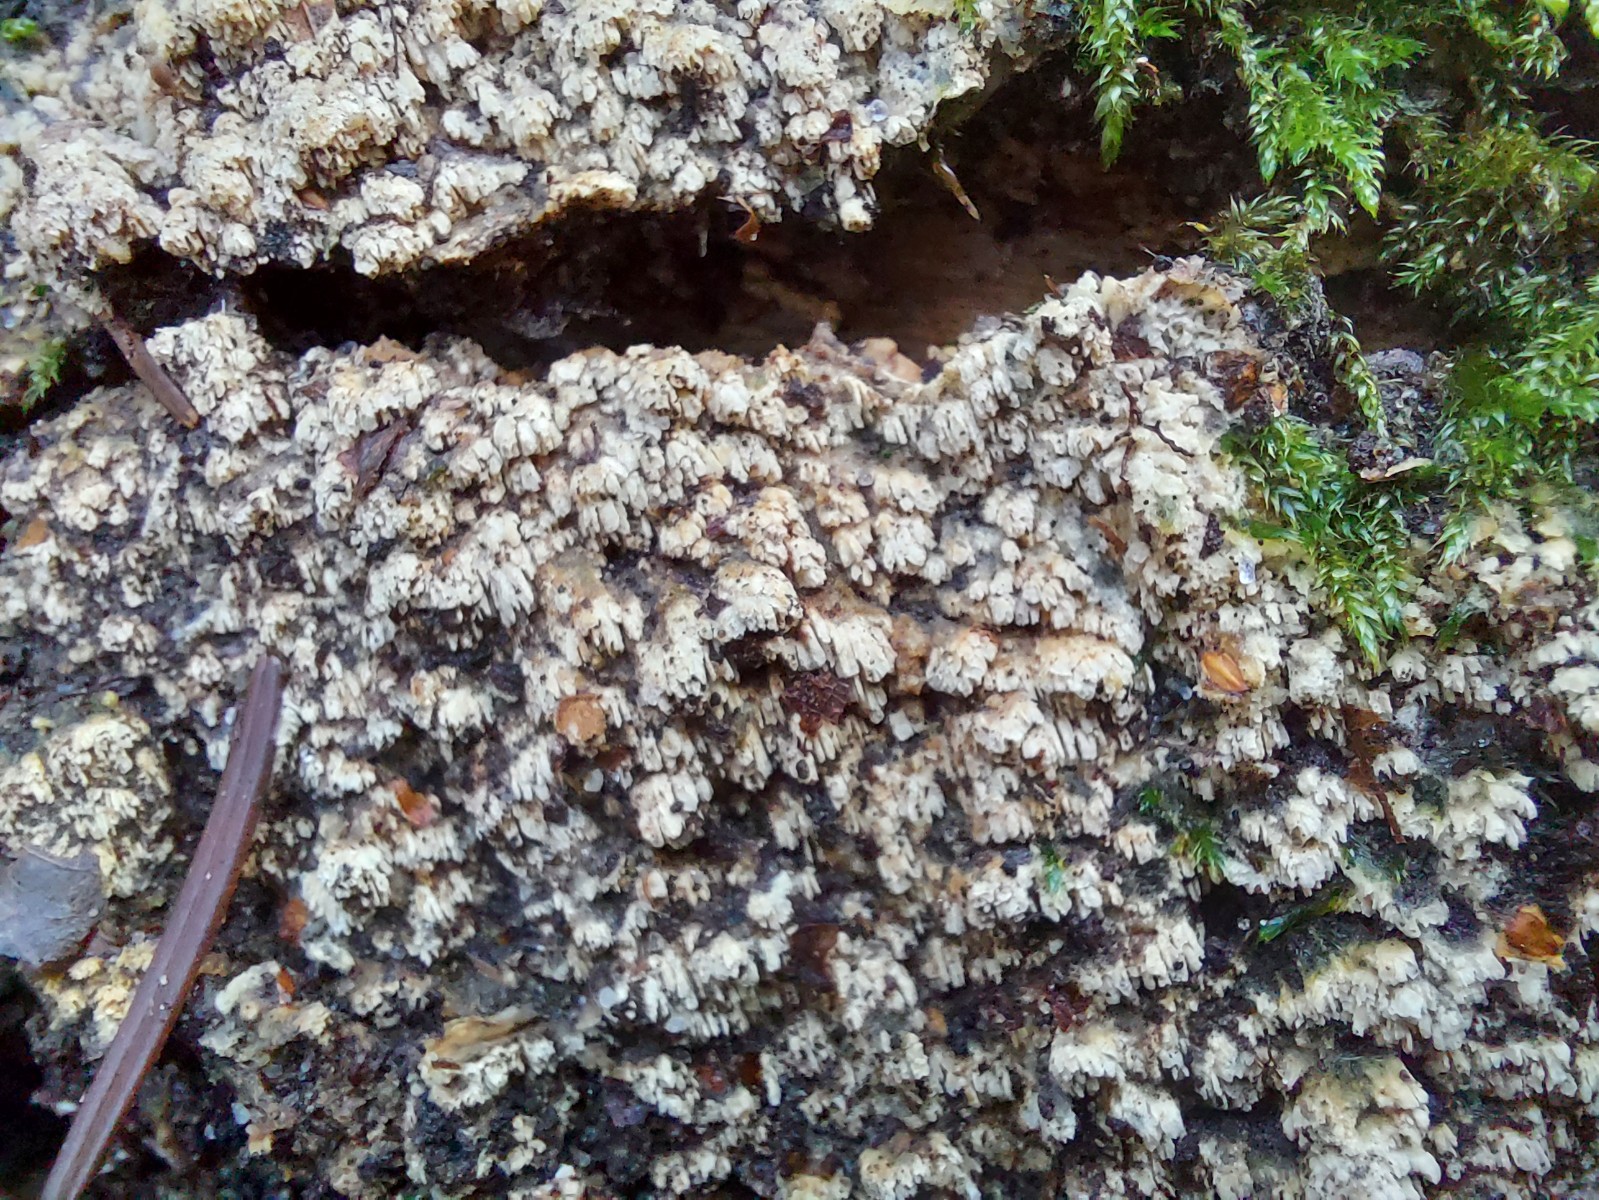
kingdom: Fungi
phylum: Basidiomycota
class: Agaricomycetes
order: Corticiales
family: Corticiaceae
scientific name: Corticiaceae
